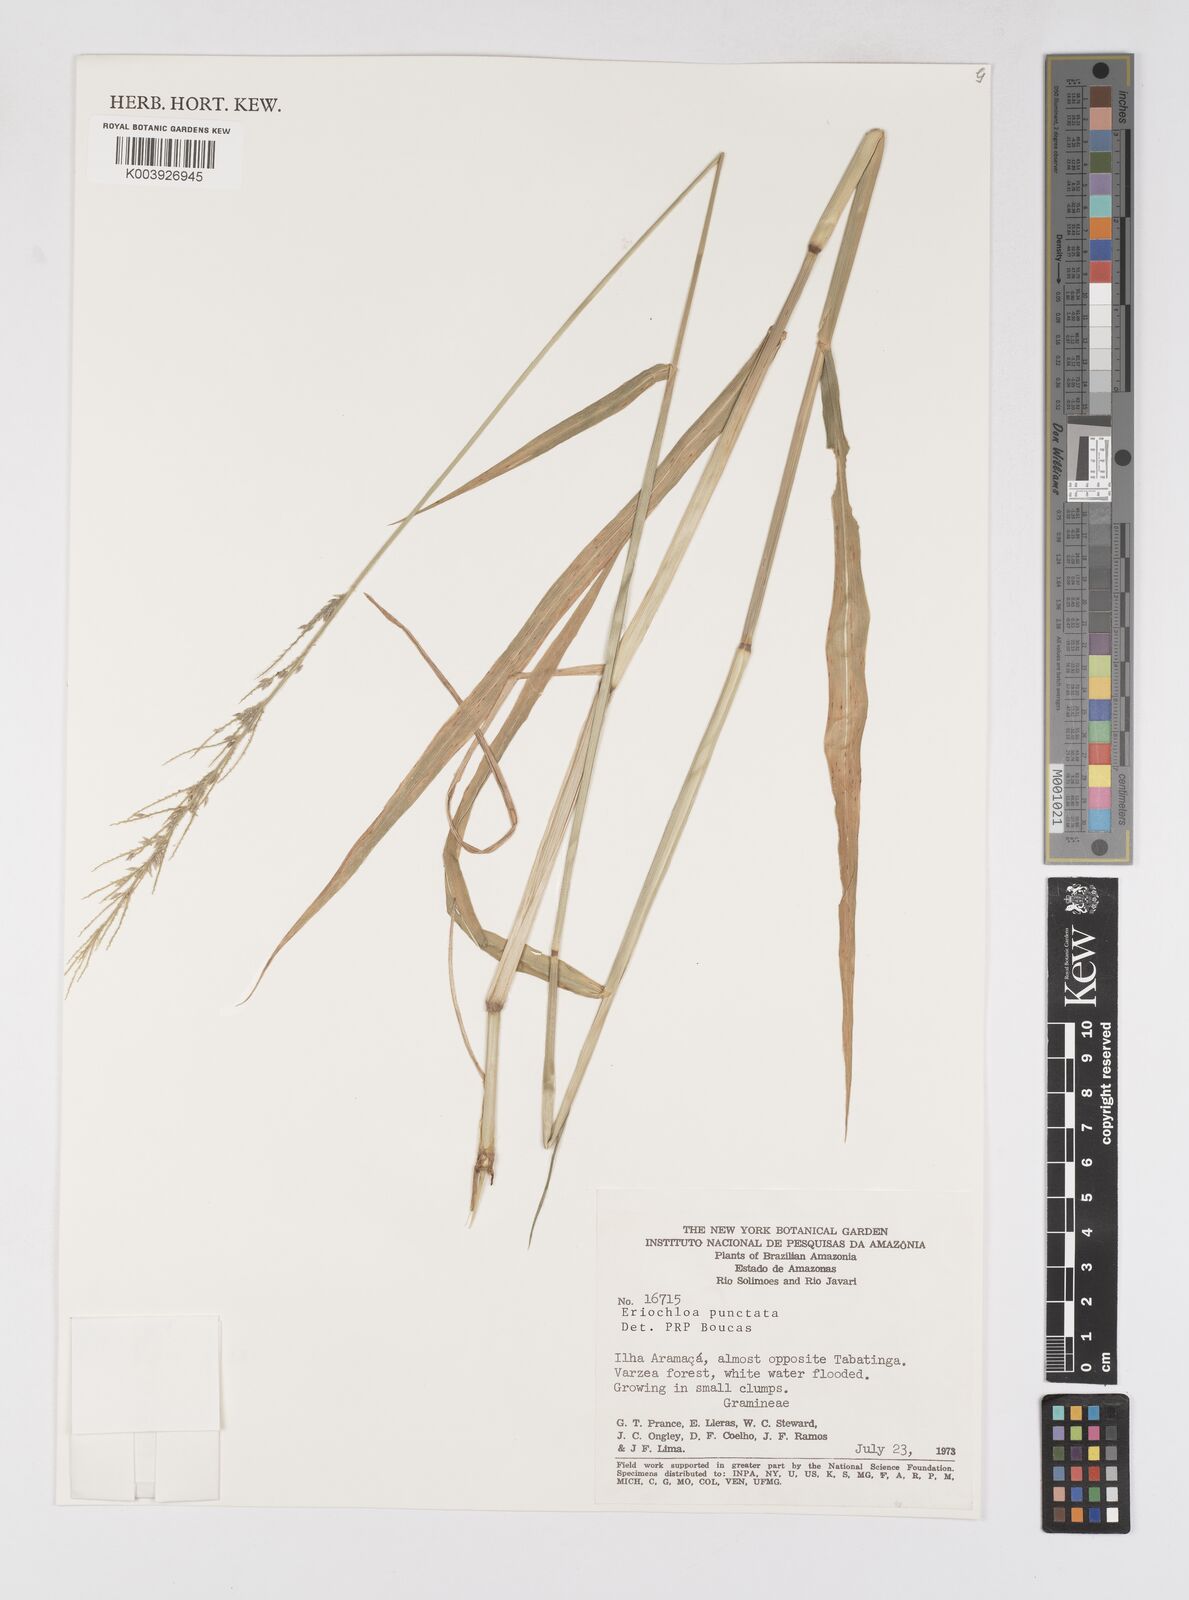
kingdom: Plantae
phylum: Tracheophyta
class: Liliopsida
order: Poales
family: Poaceae
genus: Eriochloa
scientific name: Eriochloa punctata
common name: Louisiana cupgrass
